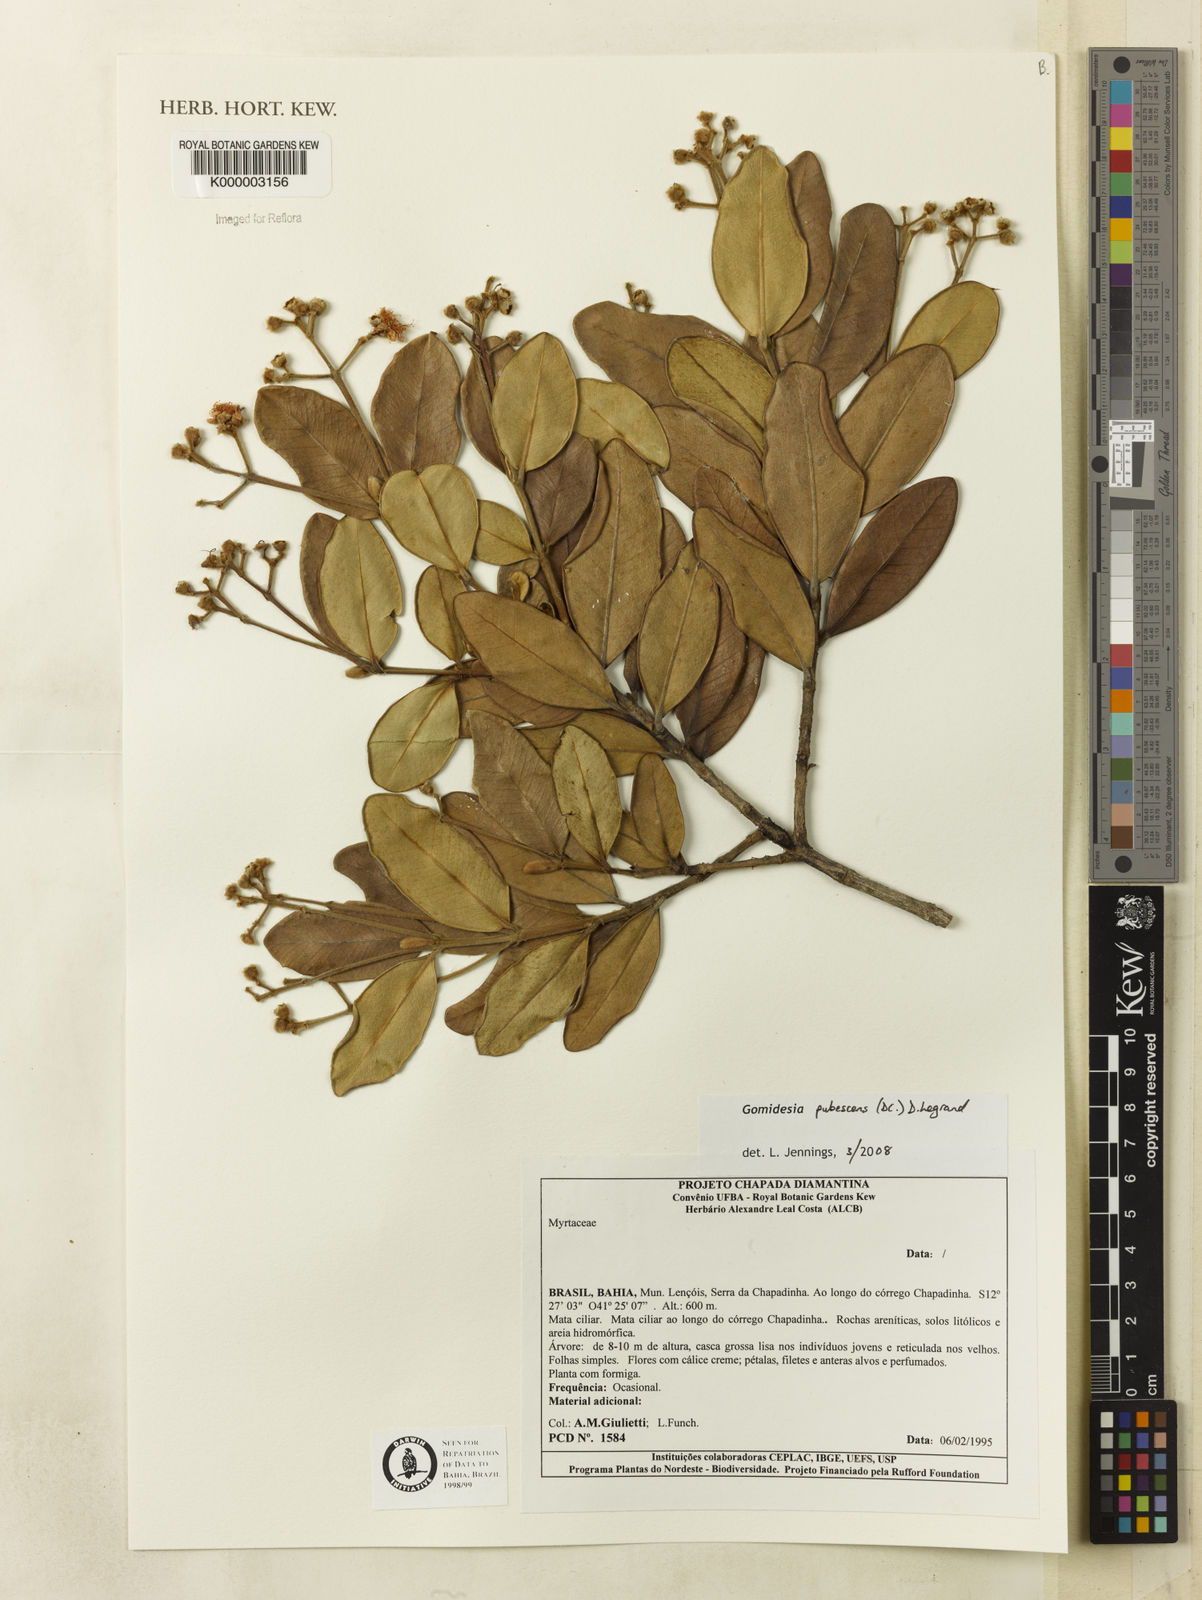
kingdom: Plantae
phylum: Tracheophyta
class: Magnoliopsida
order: Myrtales
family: Myrtaceae
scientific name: Myrtaceae
